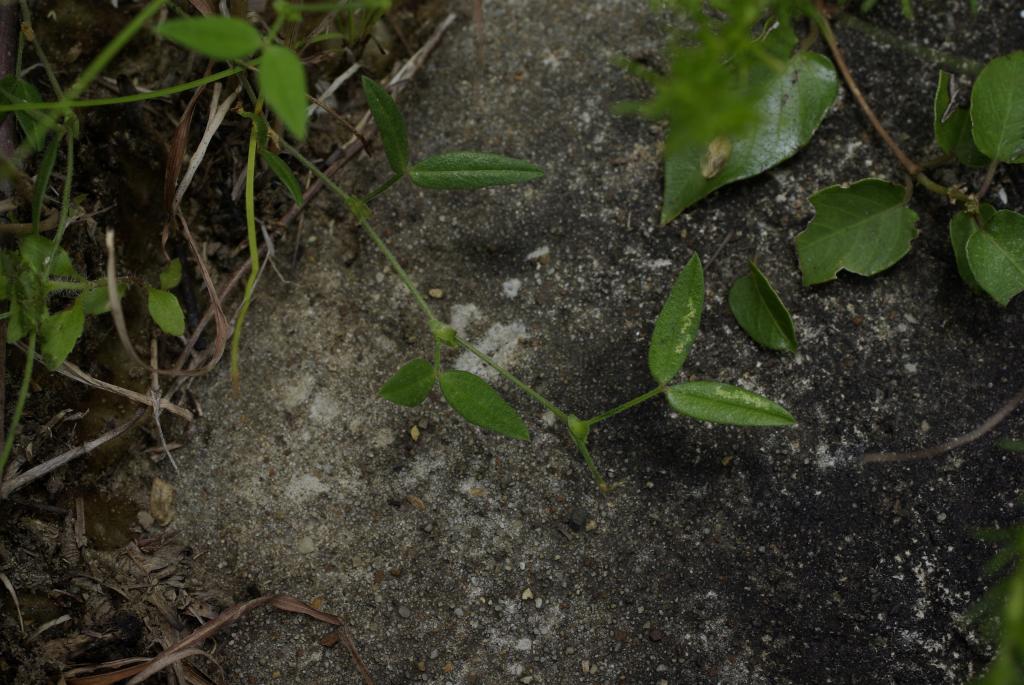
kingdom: Plantae
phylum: Tracheophyta
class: Magnoliopsida
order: Fabales
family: Fabaceae
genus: Zornia
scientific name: Zornia gibbosa
